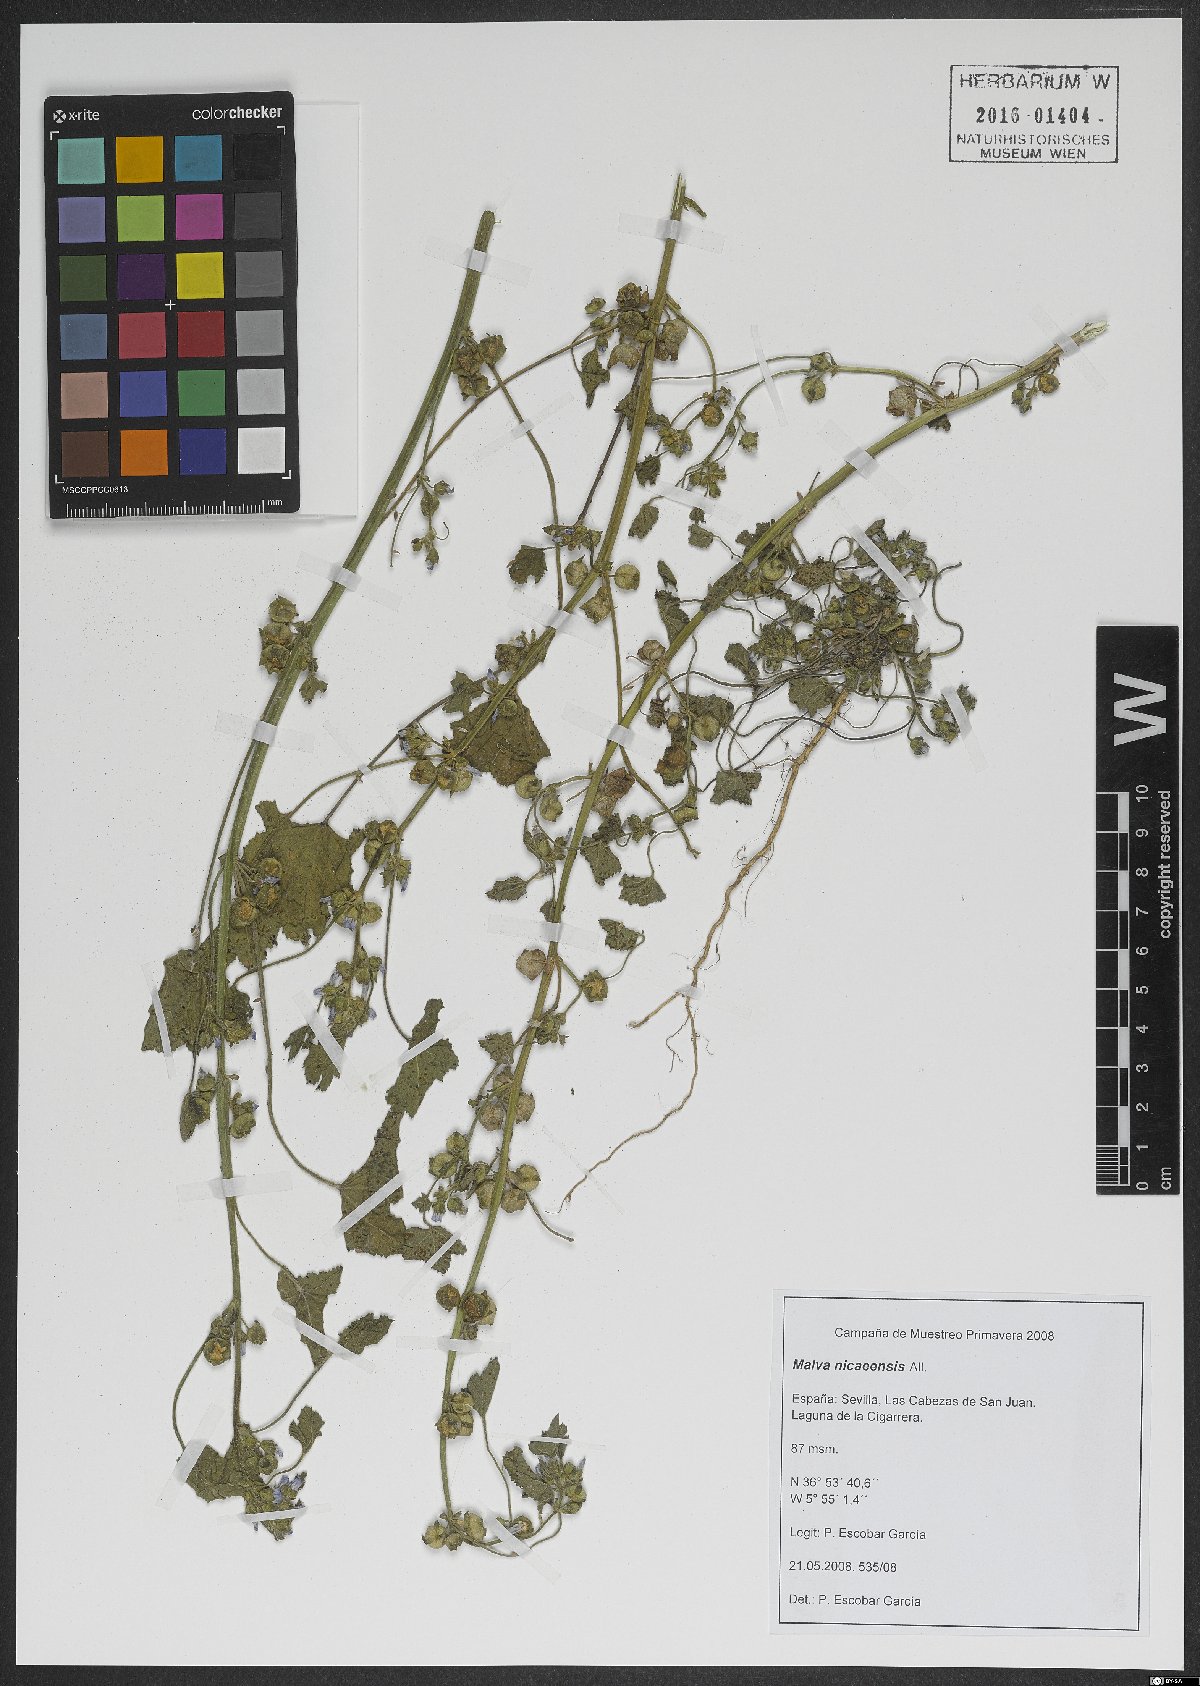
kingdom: Plantae
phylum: Tracheophyta
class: Magnoliopsida
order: Malvales
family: Malvaceae
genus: Malva
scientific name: Malva nicaeensis
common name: French mallow
